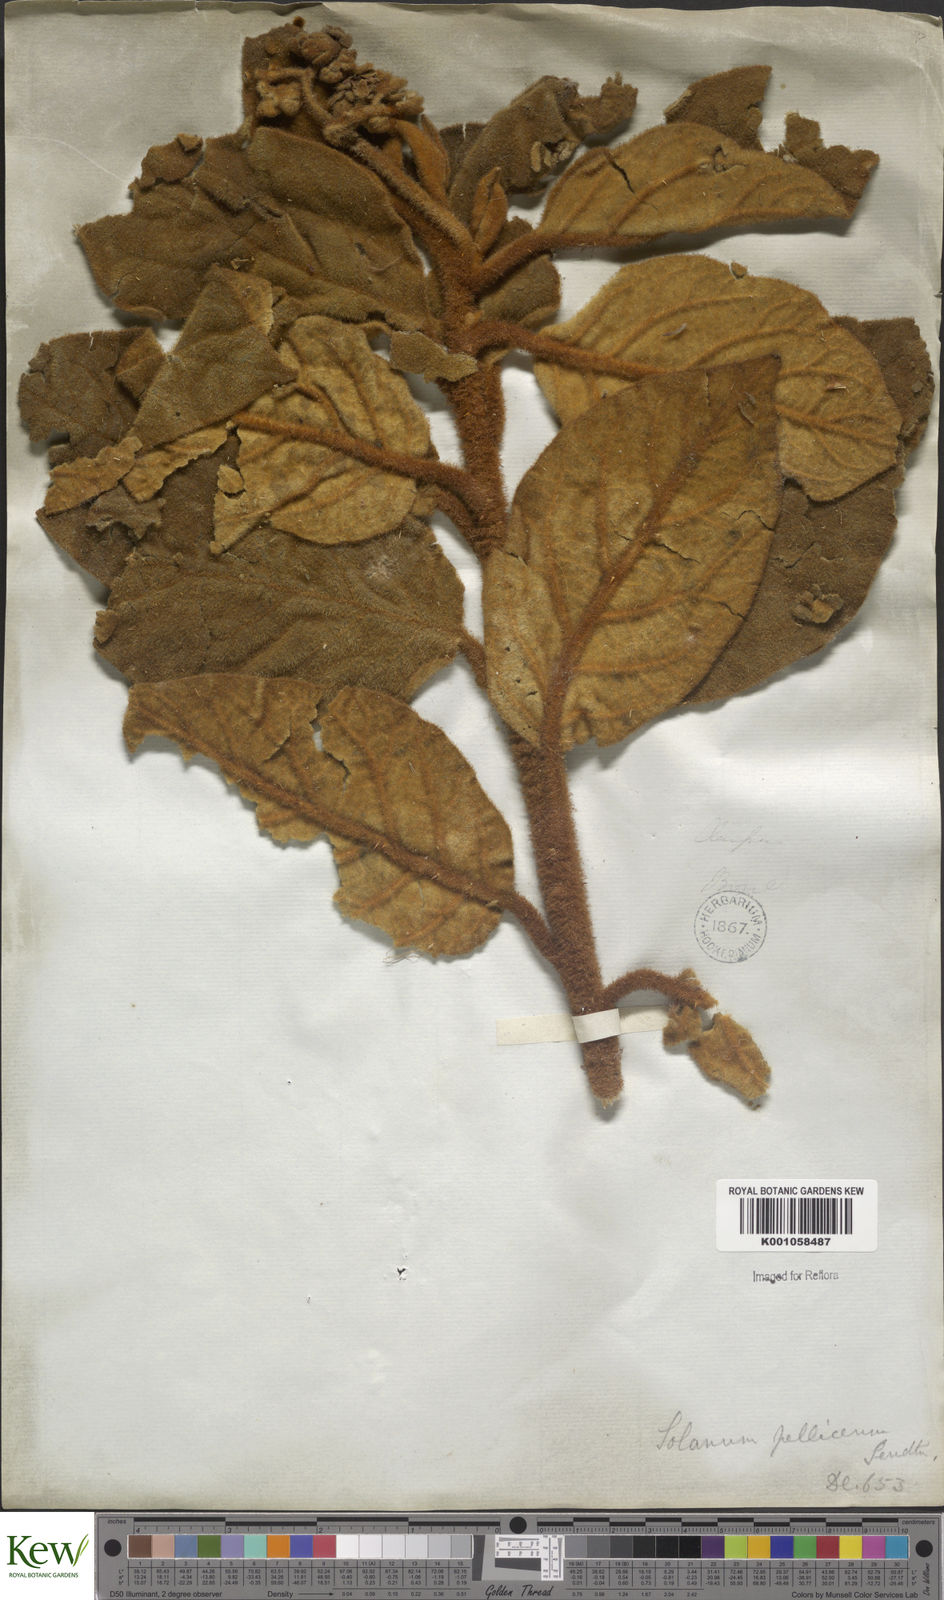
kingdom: Plantae
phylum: Tracheophyta
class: Magnoliopsida
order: Solanales
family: Solanaceae
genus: Solanum
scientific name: Solanum velleum
